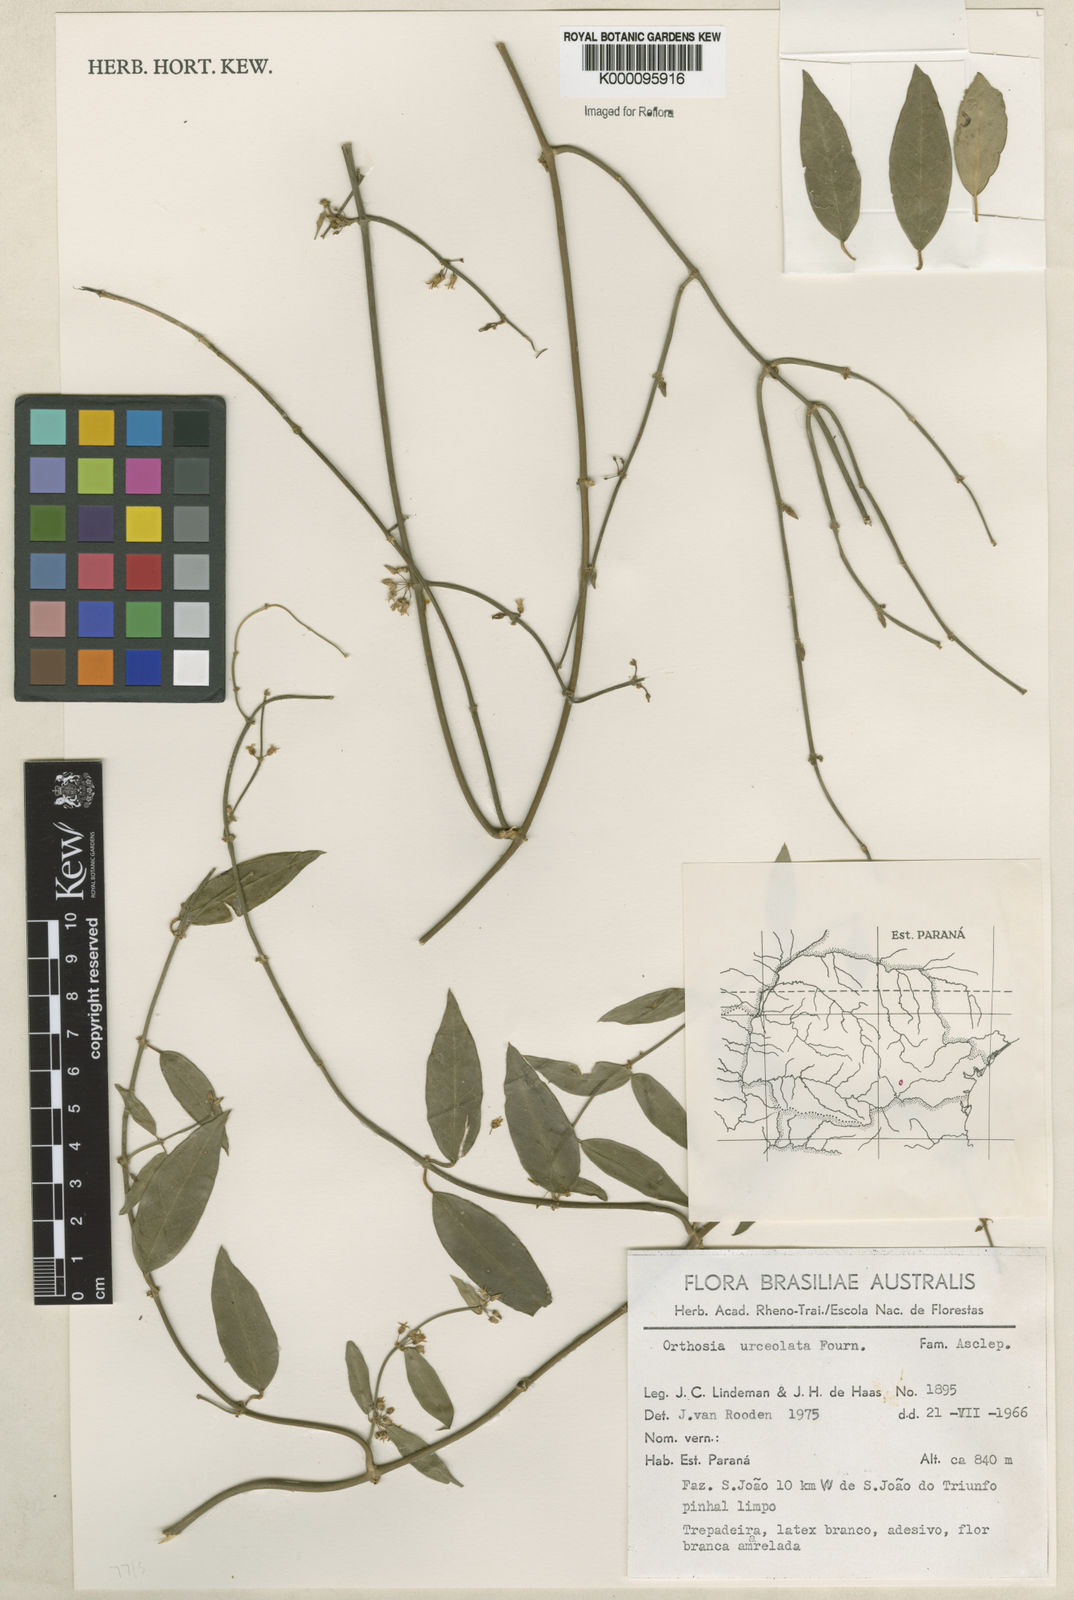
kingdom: Plantae
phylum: Tracheophyta
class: Magnoliopsida
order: Gentianales
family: Apocynaceae
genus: Orthosia
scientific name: Orthosia congesta
